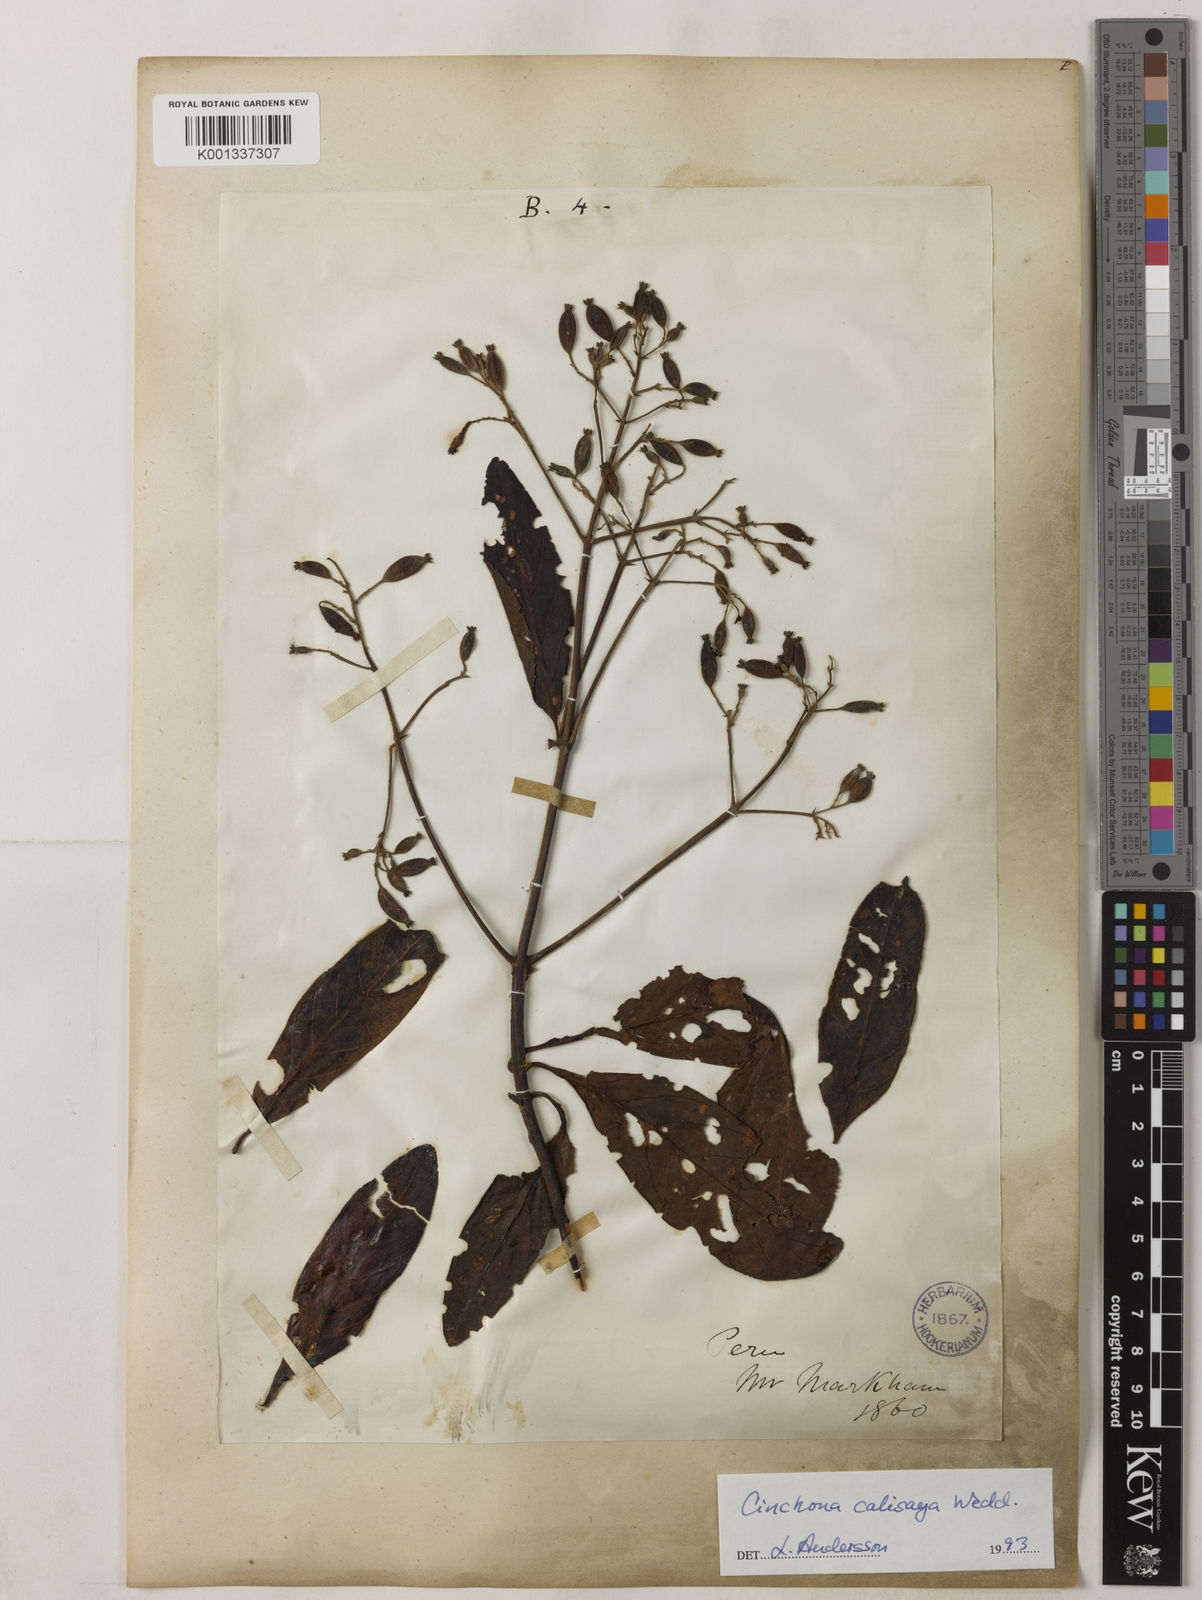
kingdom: Plantae
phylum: Tracheophyta
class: Magnoliopsida
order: Gentianales
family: Rubiaceae
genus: Cinchona
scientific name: Cinchona calisaya
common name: Ledgerbark
